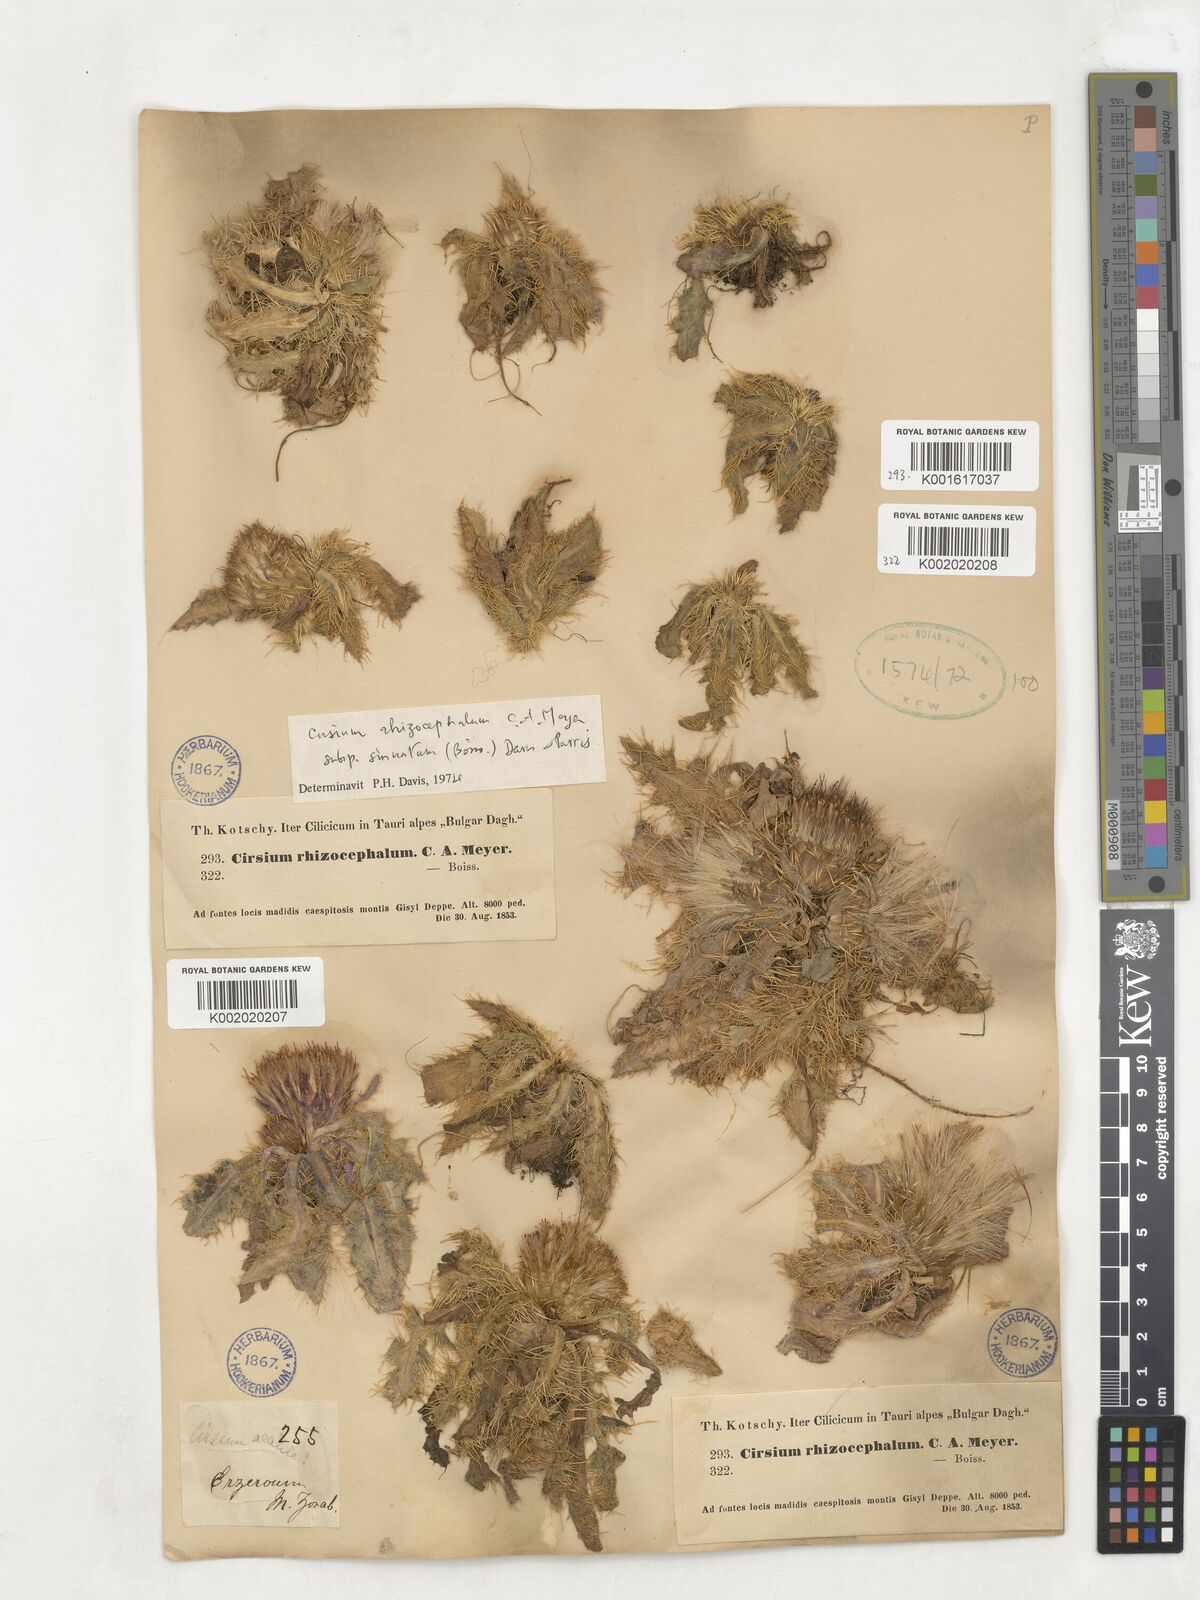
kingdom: Plantae
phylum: Tracheophyta
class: Magnoliopsida
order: Asterales
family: Asteraceae
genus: Cirsium
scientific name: Cirsium rhizocephalum
